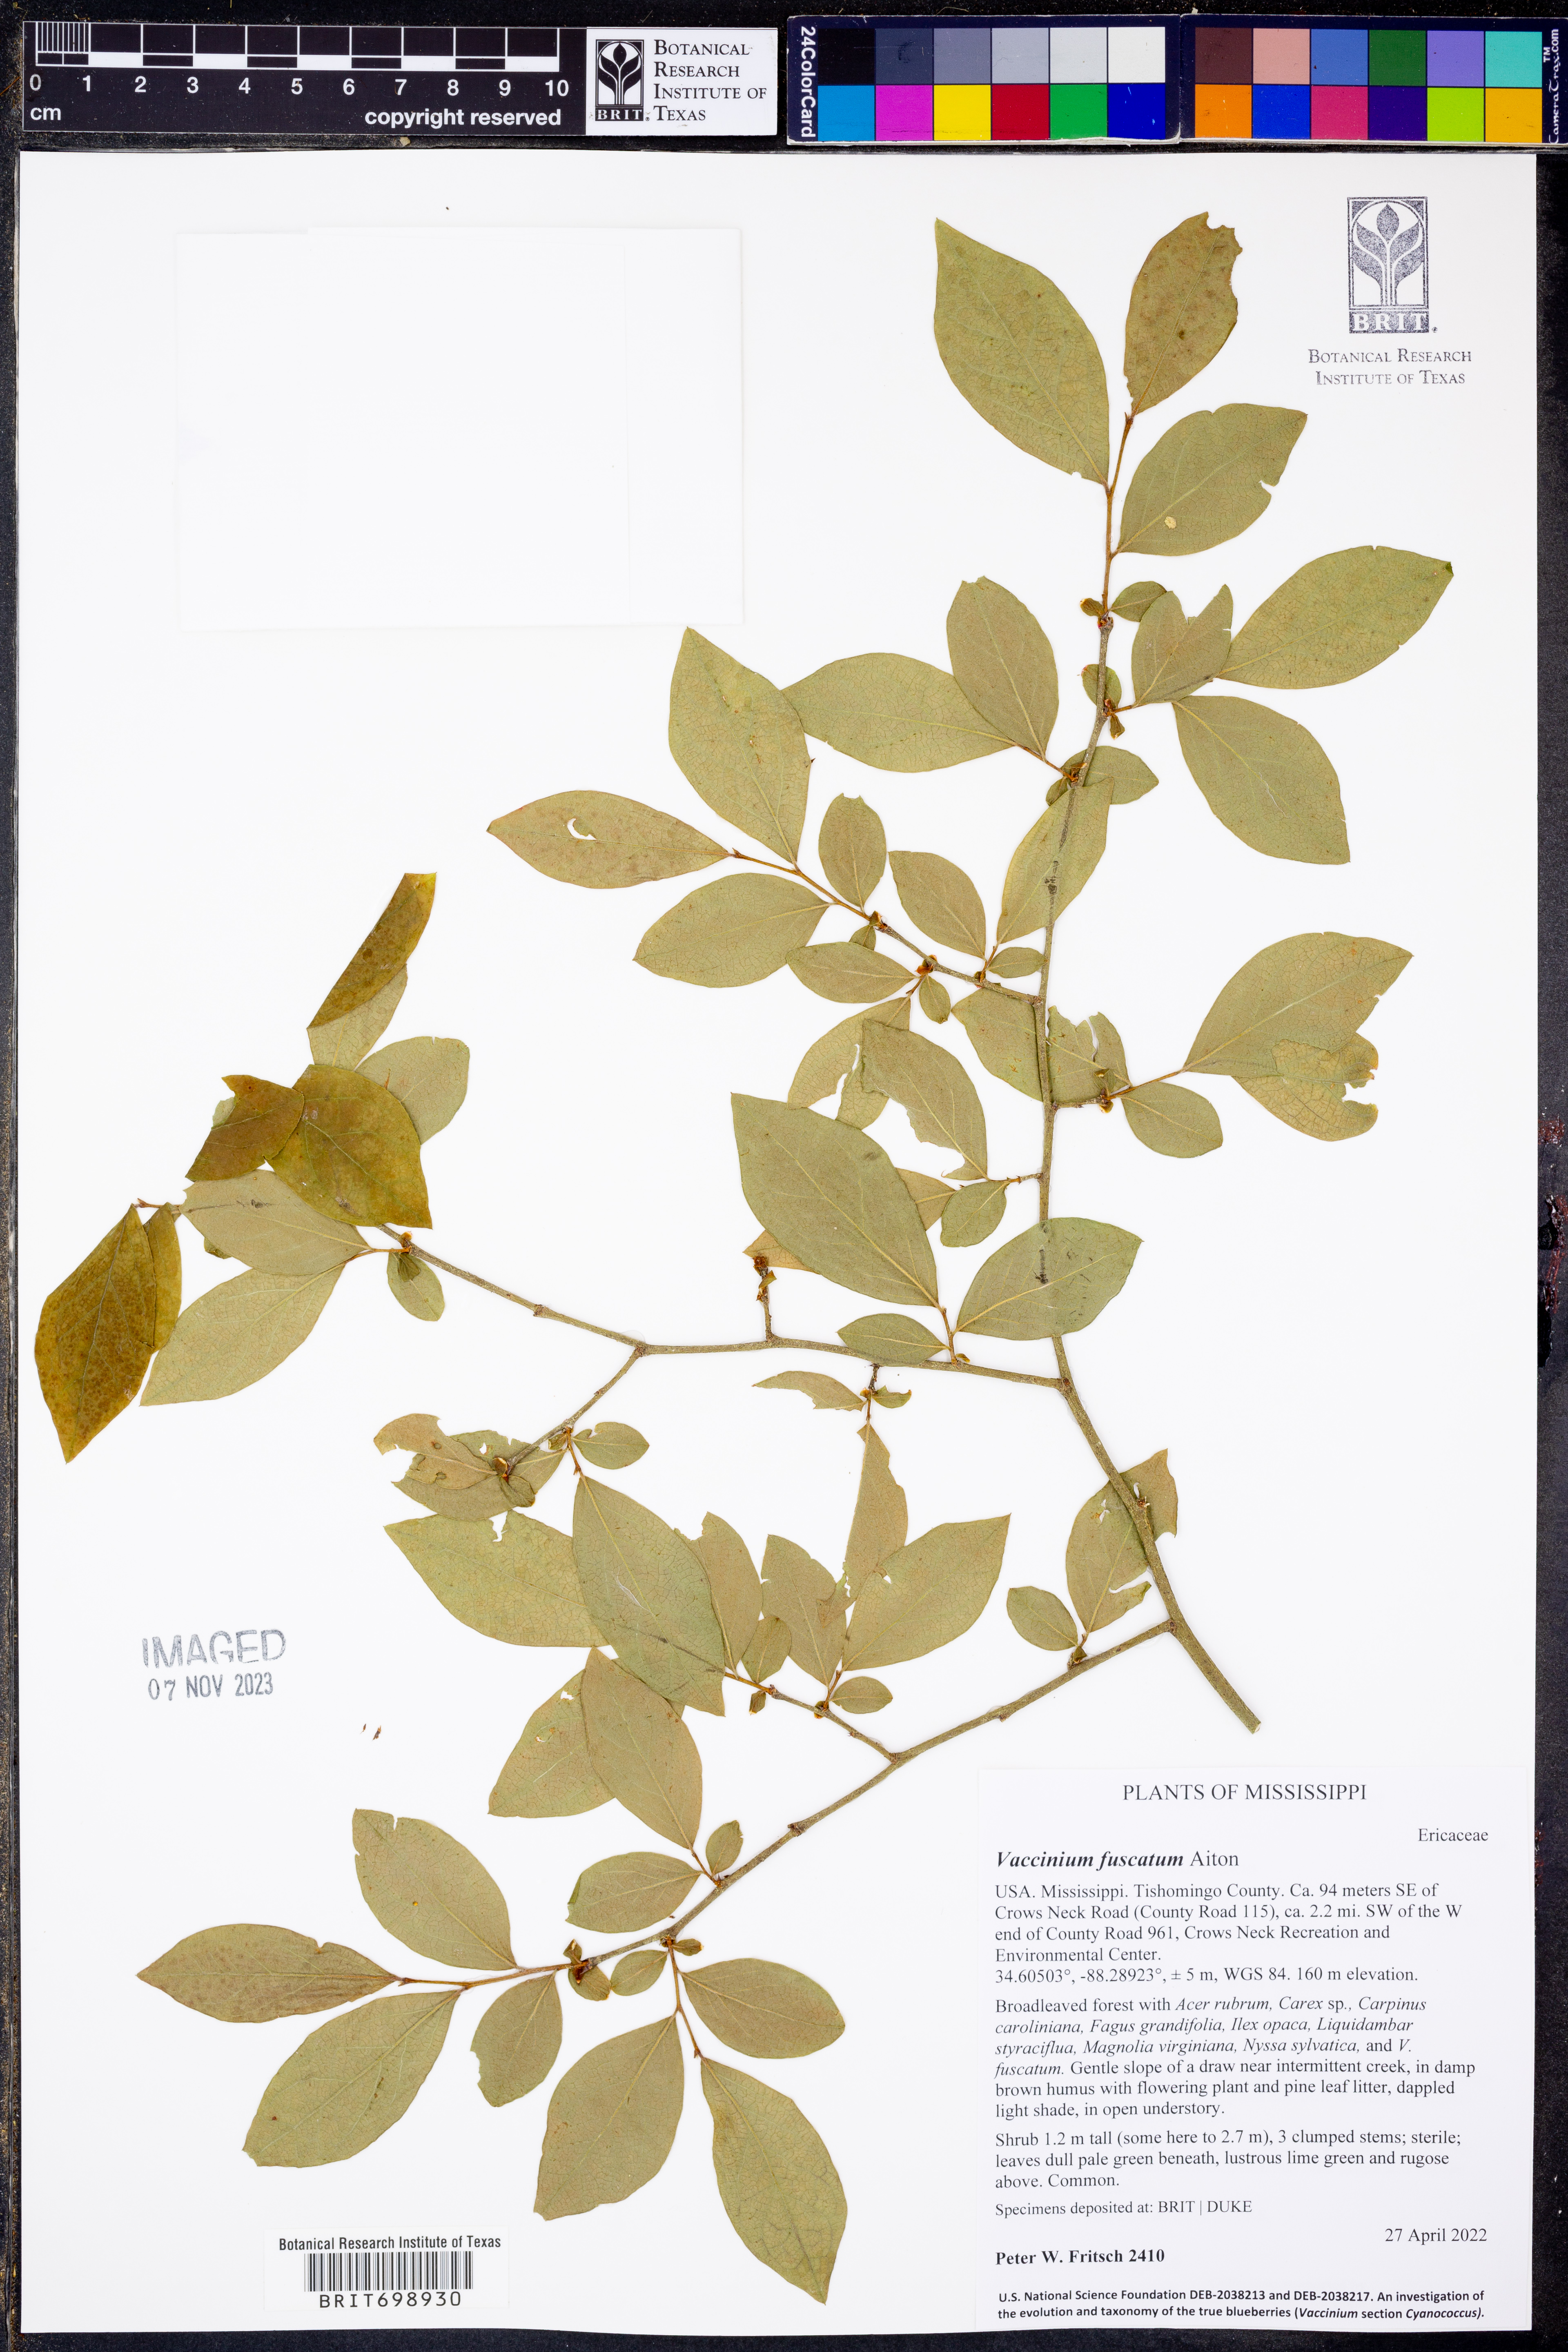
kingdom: Plantae
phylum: Tracheophyta
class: Magnoliopsida
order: Ericales
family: Ericaceae
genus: Vaccinium
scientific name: Vaccinium corymbosum
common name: Blueberry
